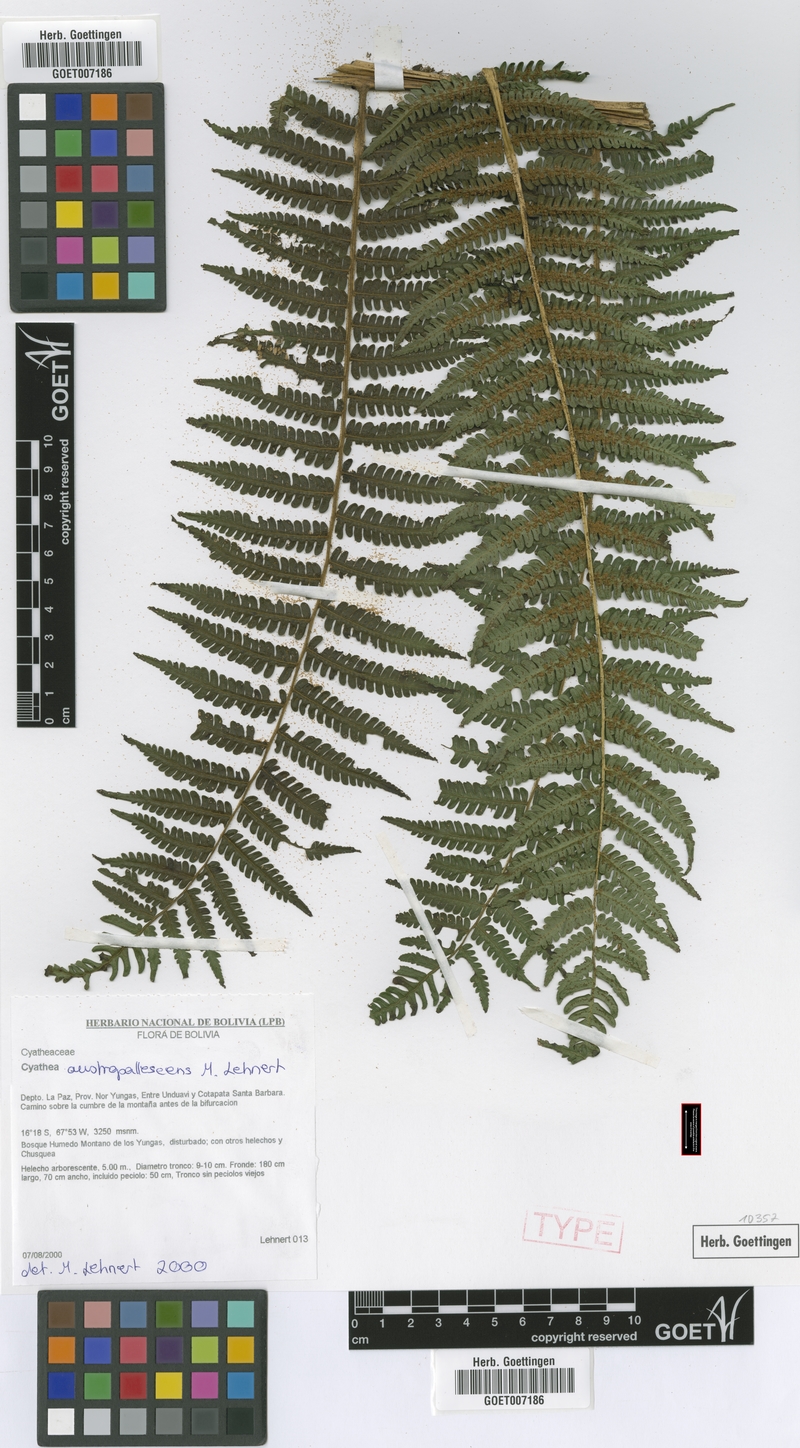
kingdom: Plantae
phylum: Tracheophyta
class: Polypodiopsida
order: Cyatheales
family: Cyatheaceae
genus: Cyathea
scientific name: Cyathea austropallescens
